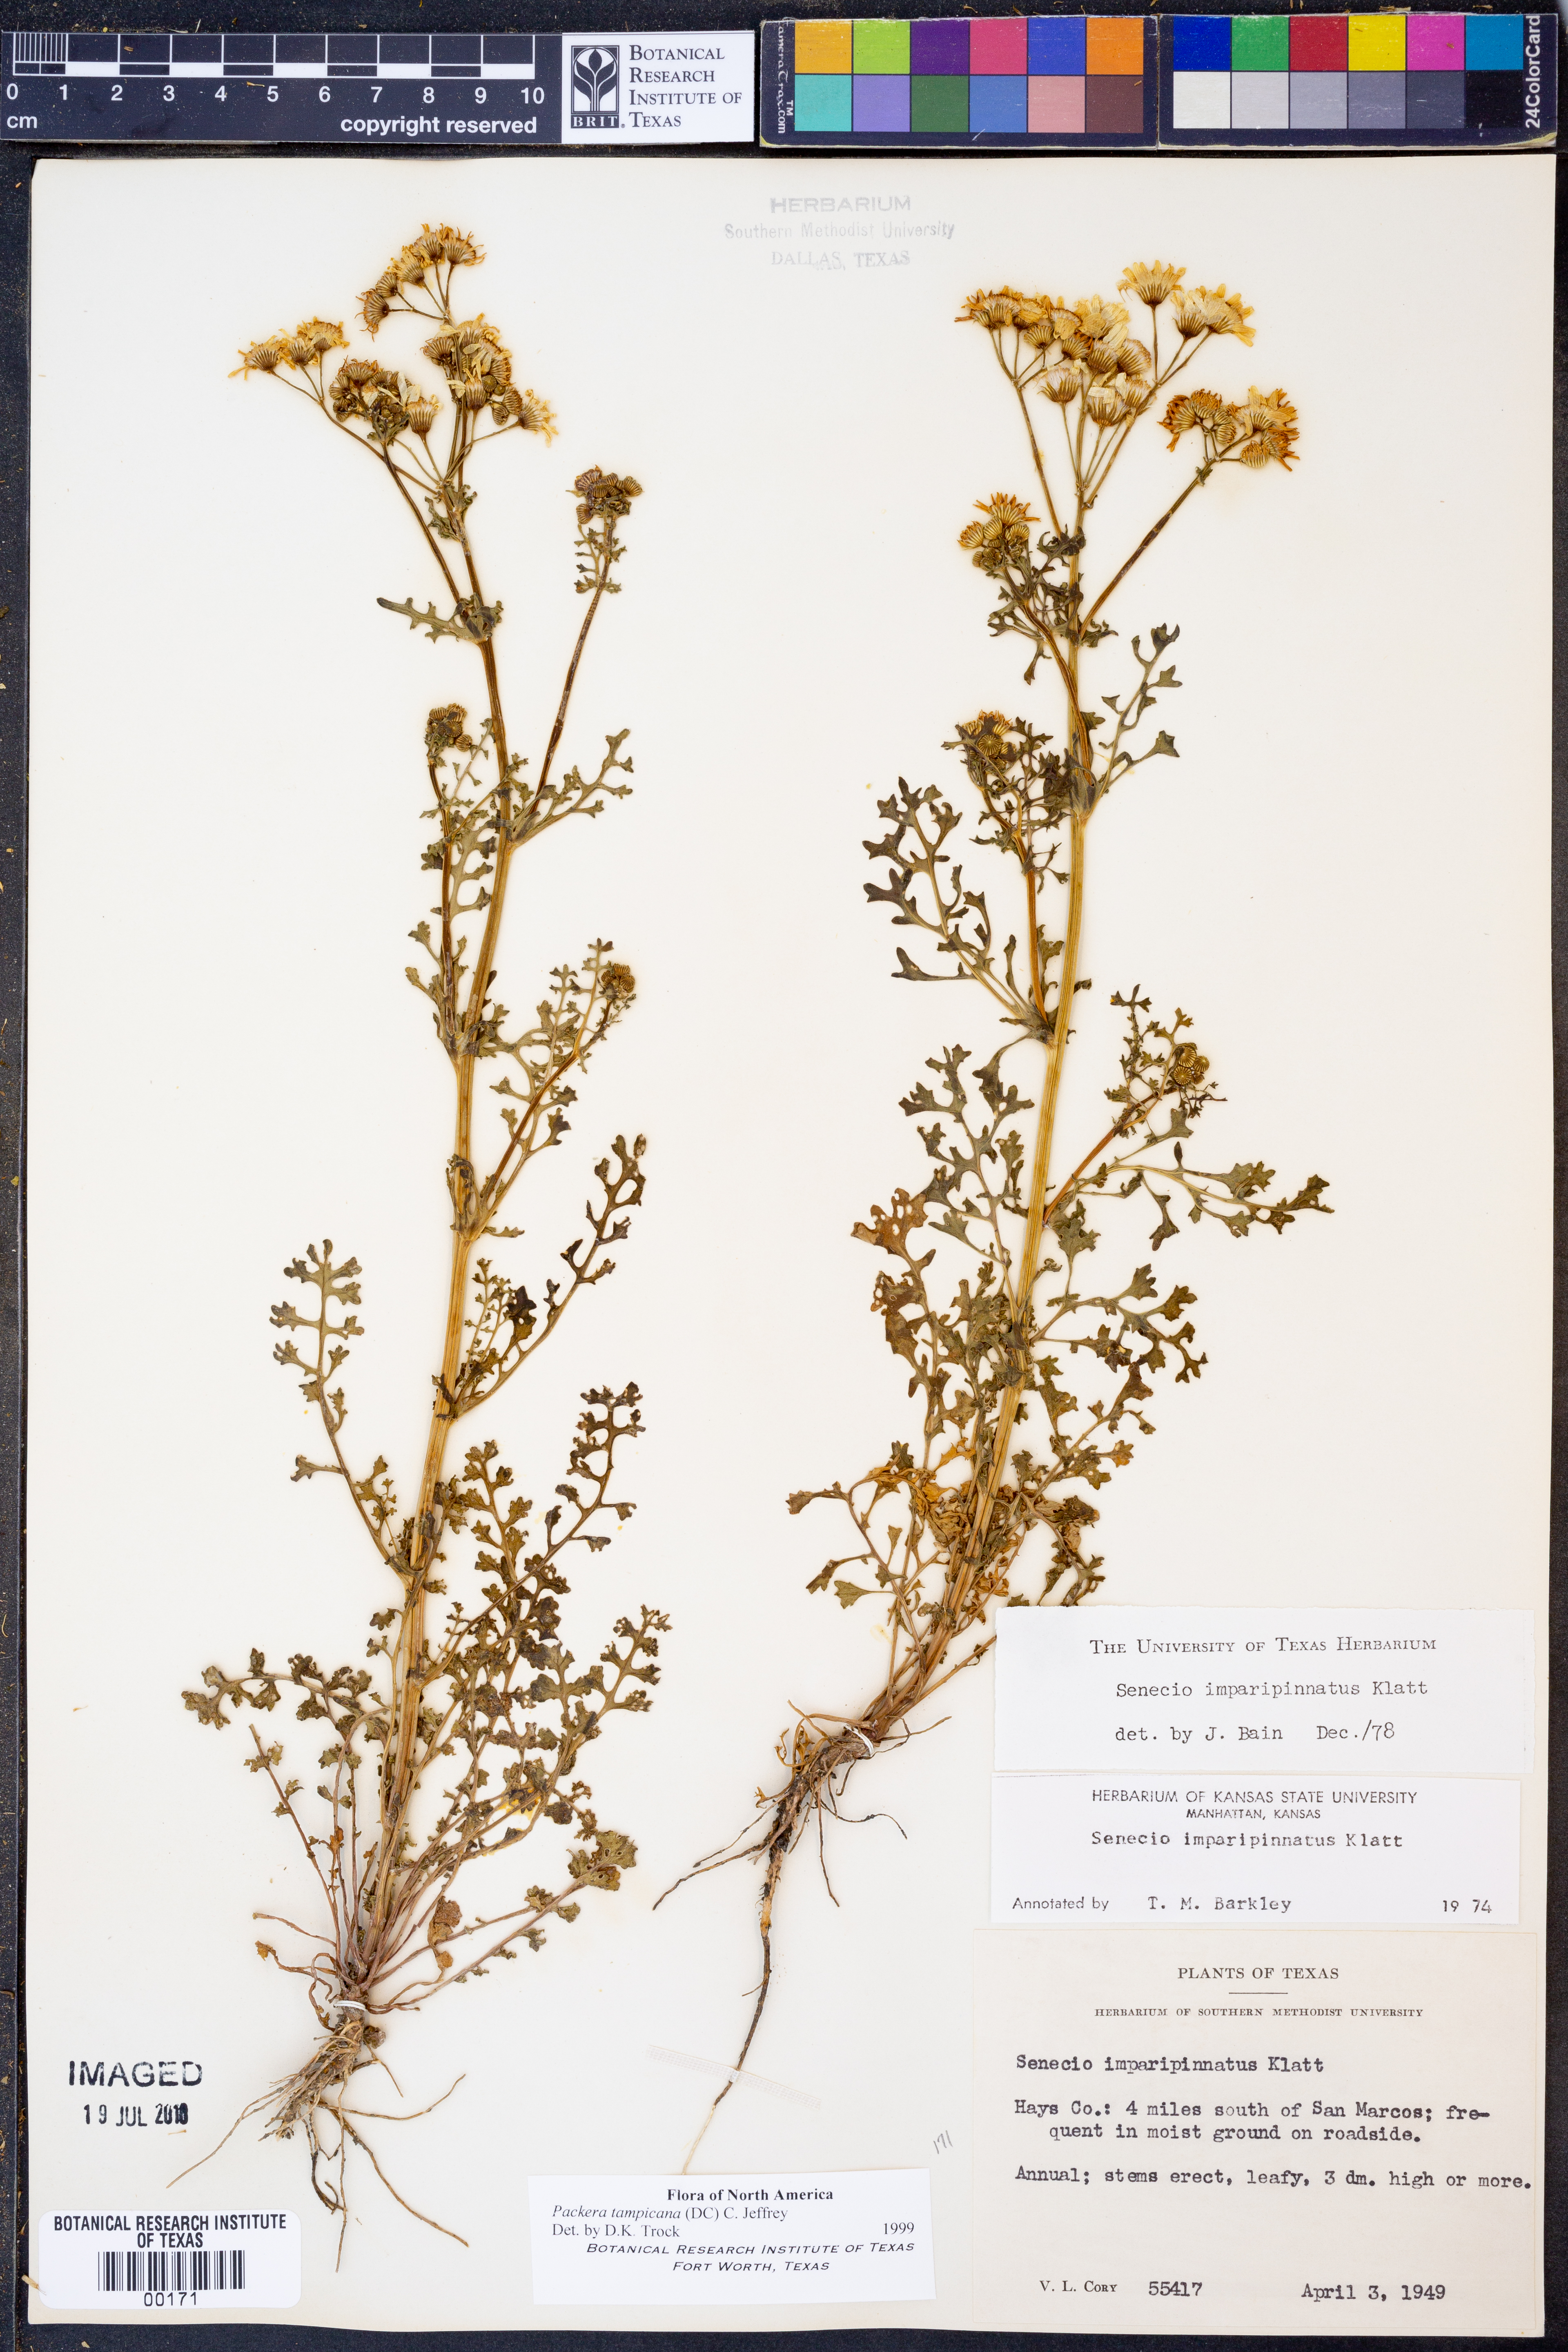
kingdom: Plantae
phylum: Tracheophyta
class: Magnoliopsida
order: Asterales
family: Asteraceae
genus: Packera
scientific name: Packera tampicana
